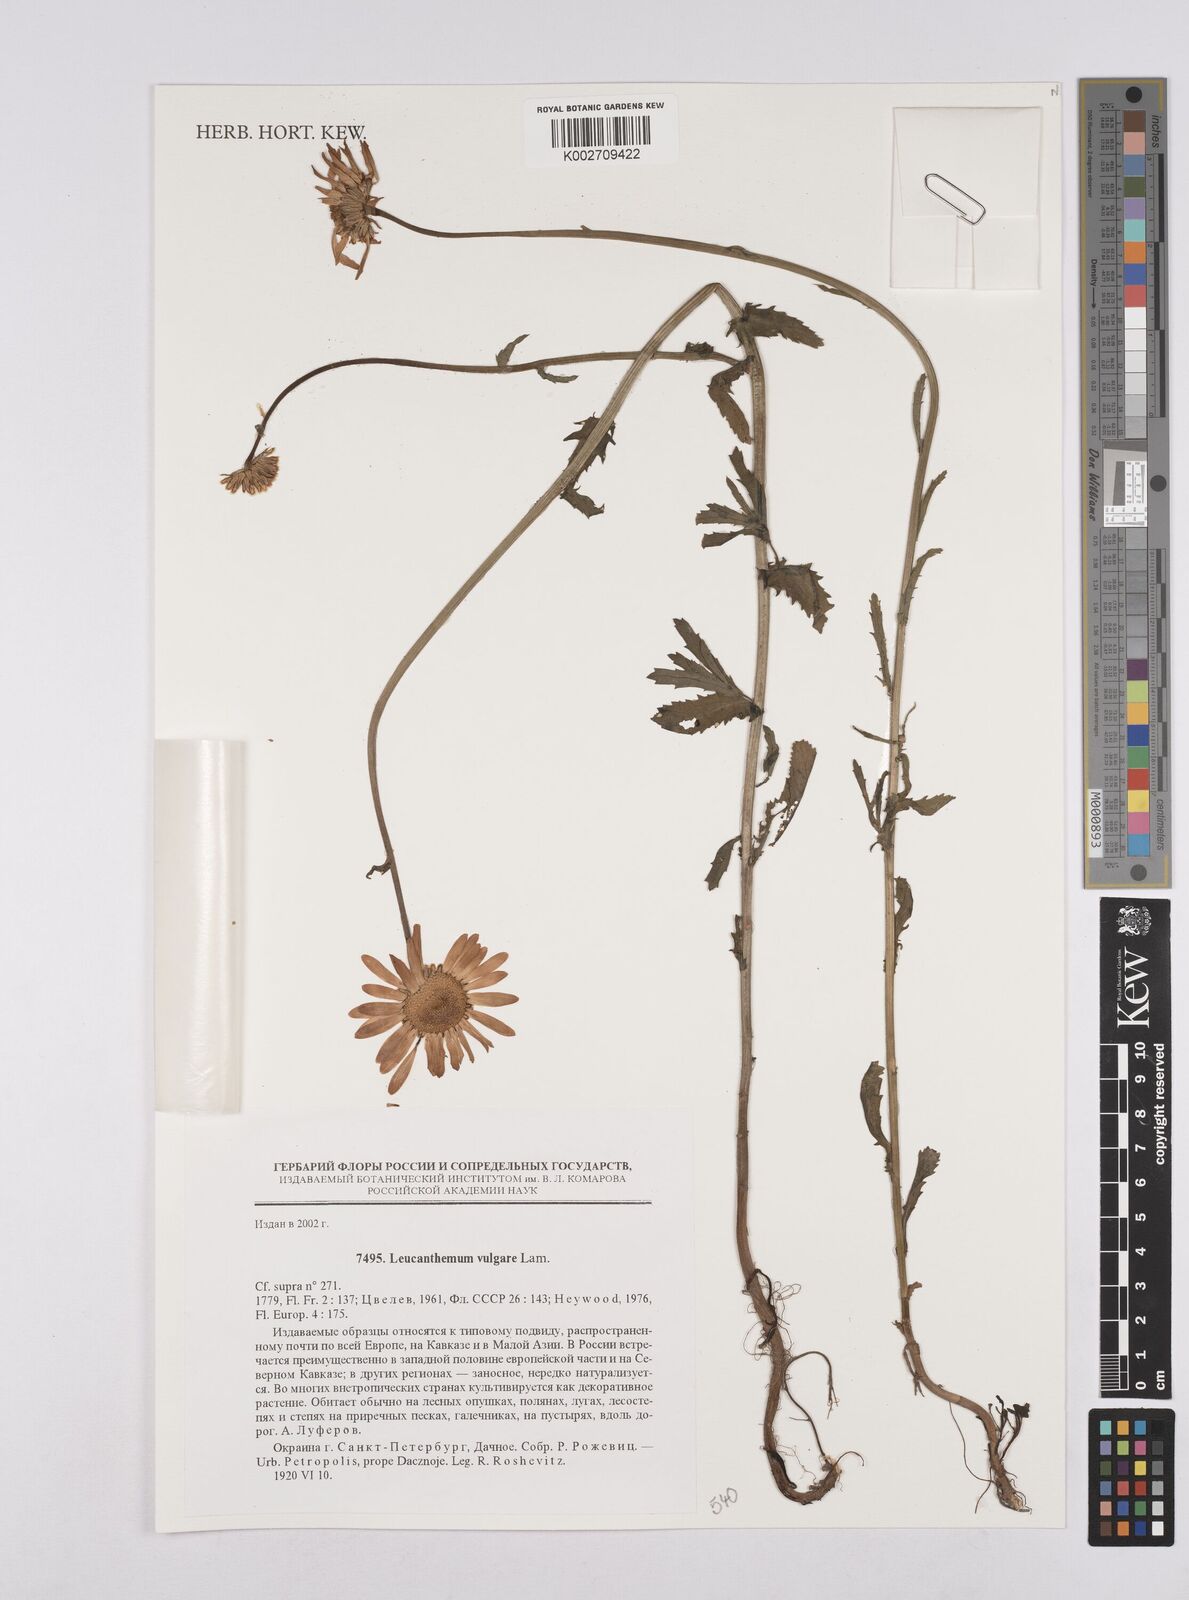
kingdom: Plantae
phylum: Tracheophyta
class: Magnoliopsida
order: Asterales
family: Asteraceae
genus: Leucanthemum
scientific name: Leucanthemum vulgare
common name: Oxeye daisy
